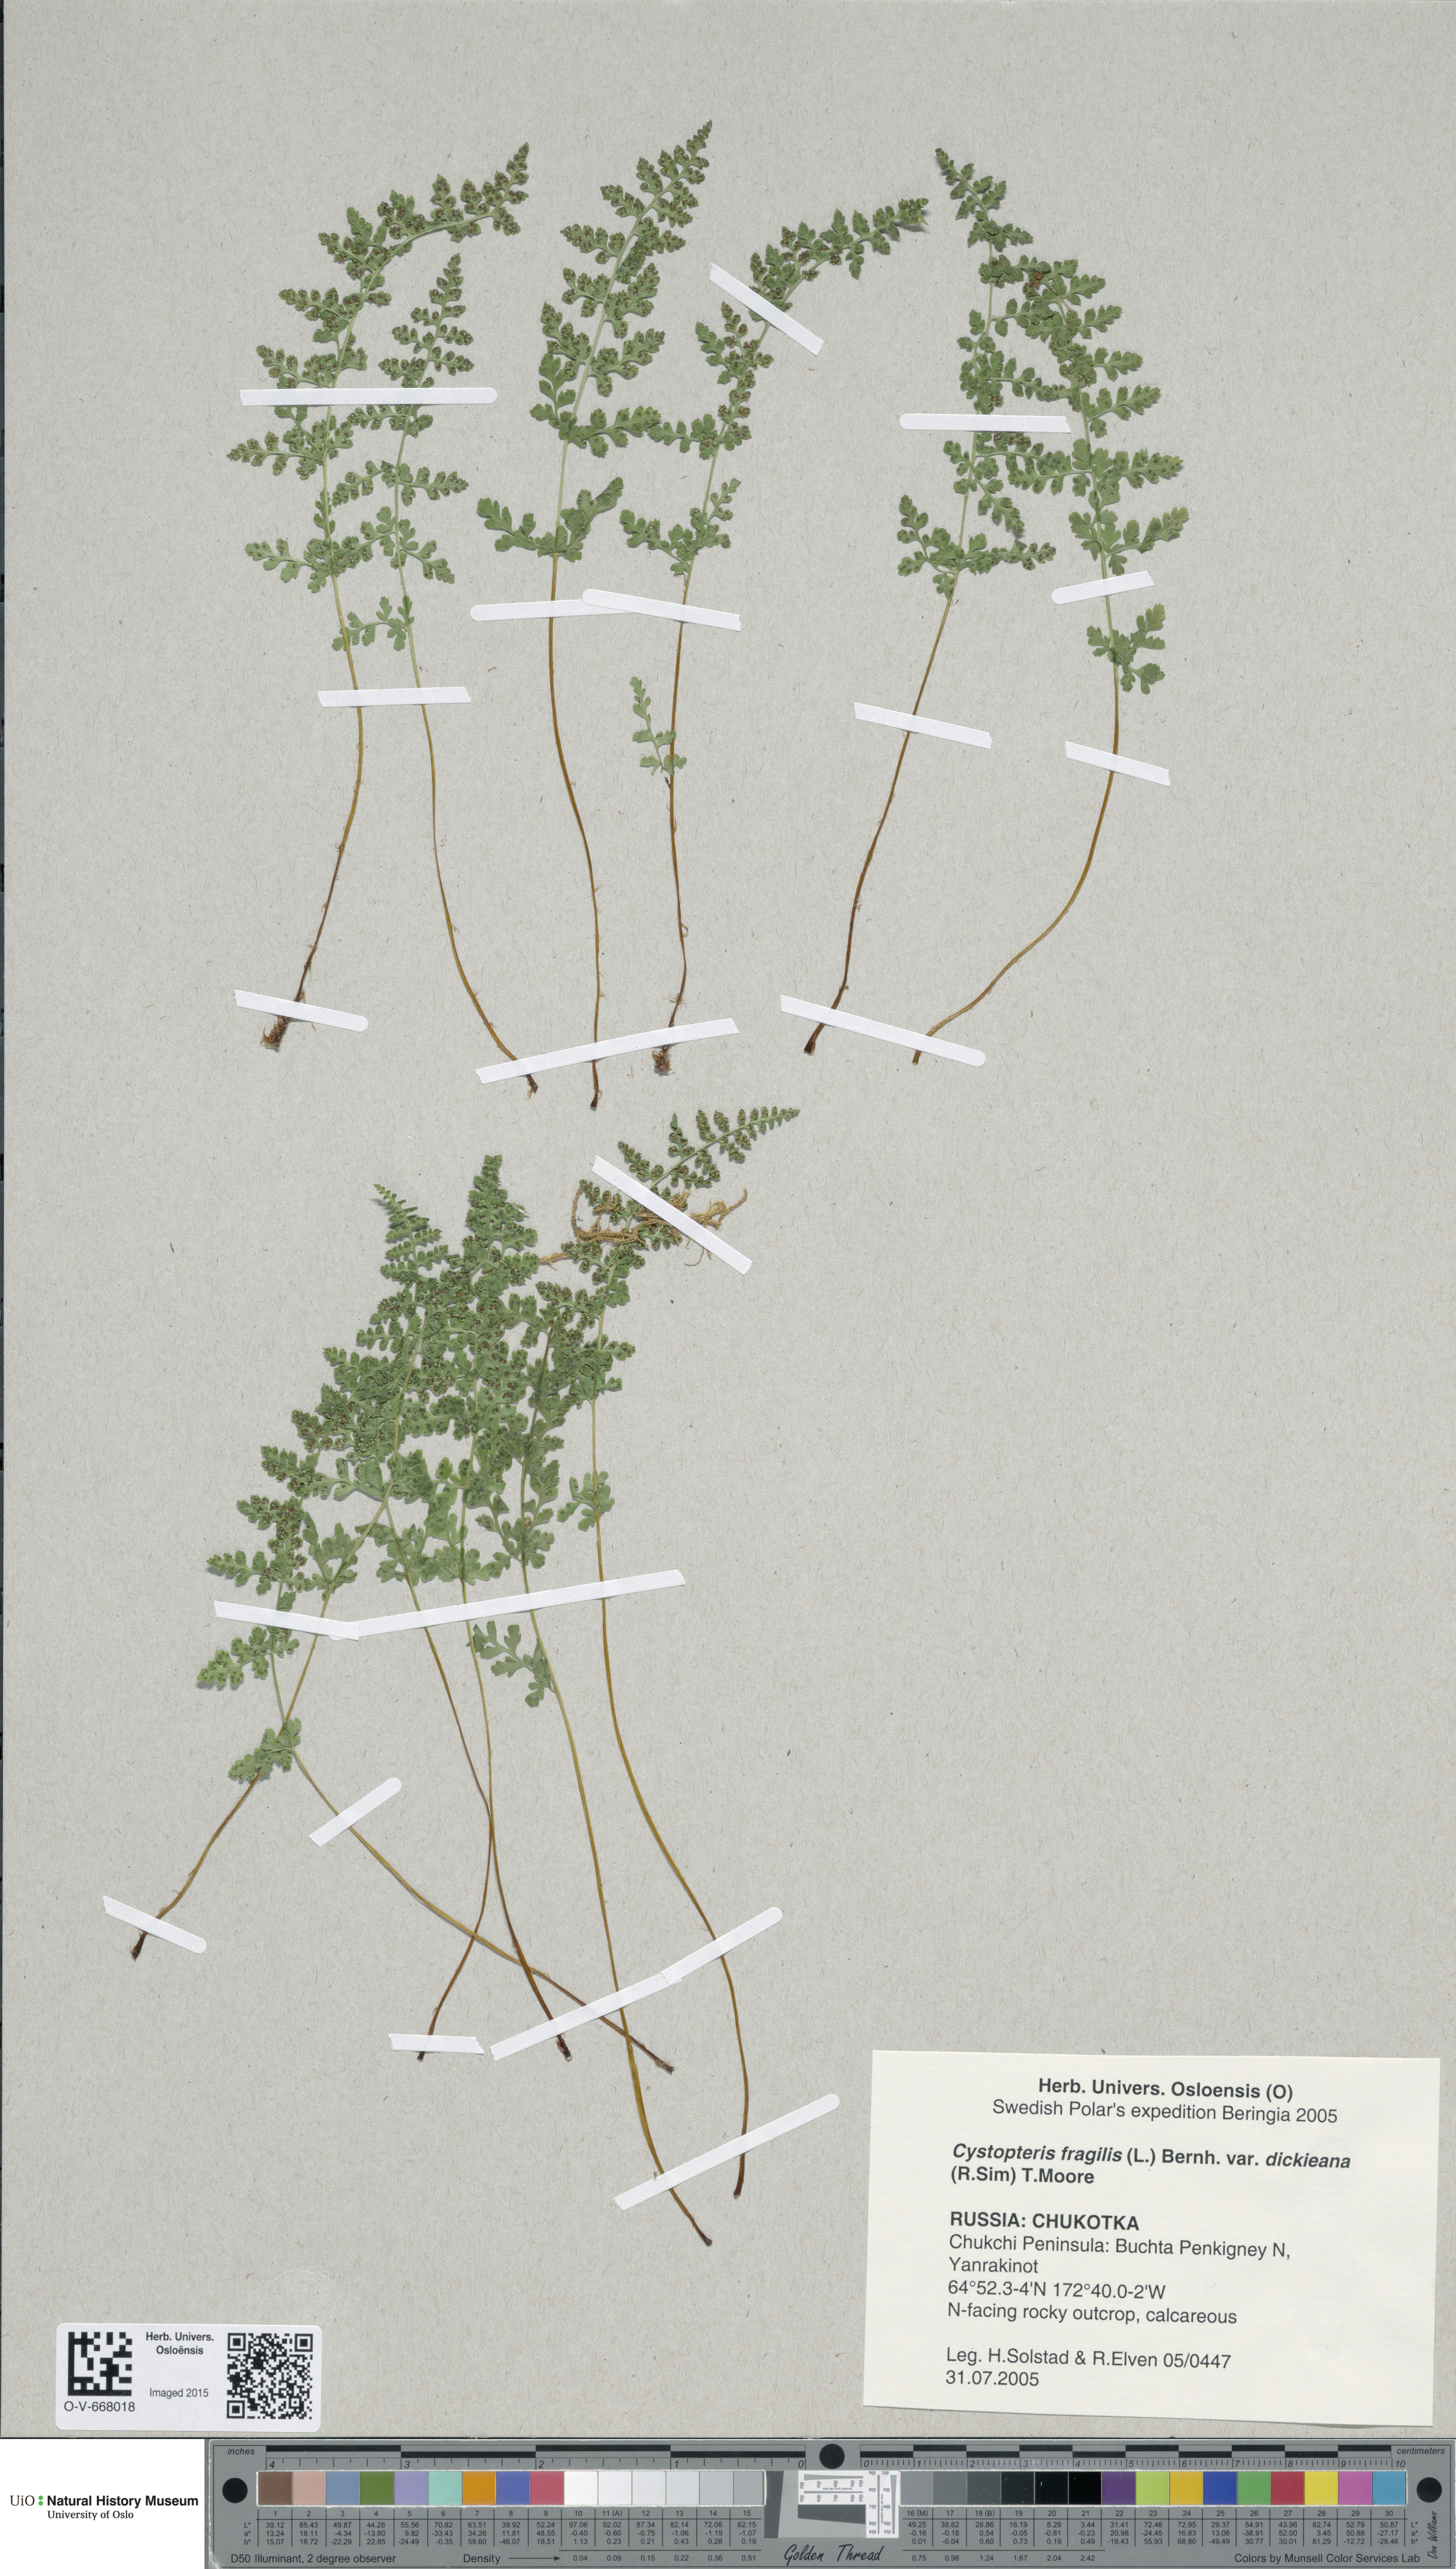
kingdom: Plantae
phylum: Tracheophyta
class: Polypodiopsida
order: Polypodiales
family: Cystopteridaceae
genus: Cystopteris
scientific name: Cystopteris fragilis
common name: Brittle bladder fern
